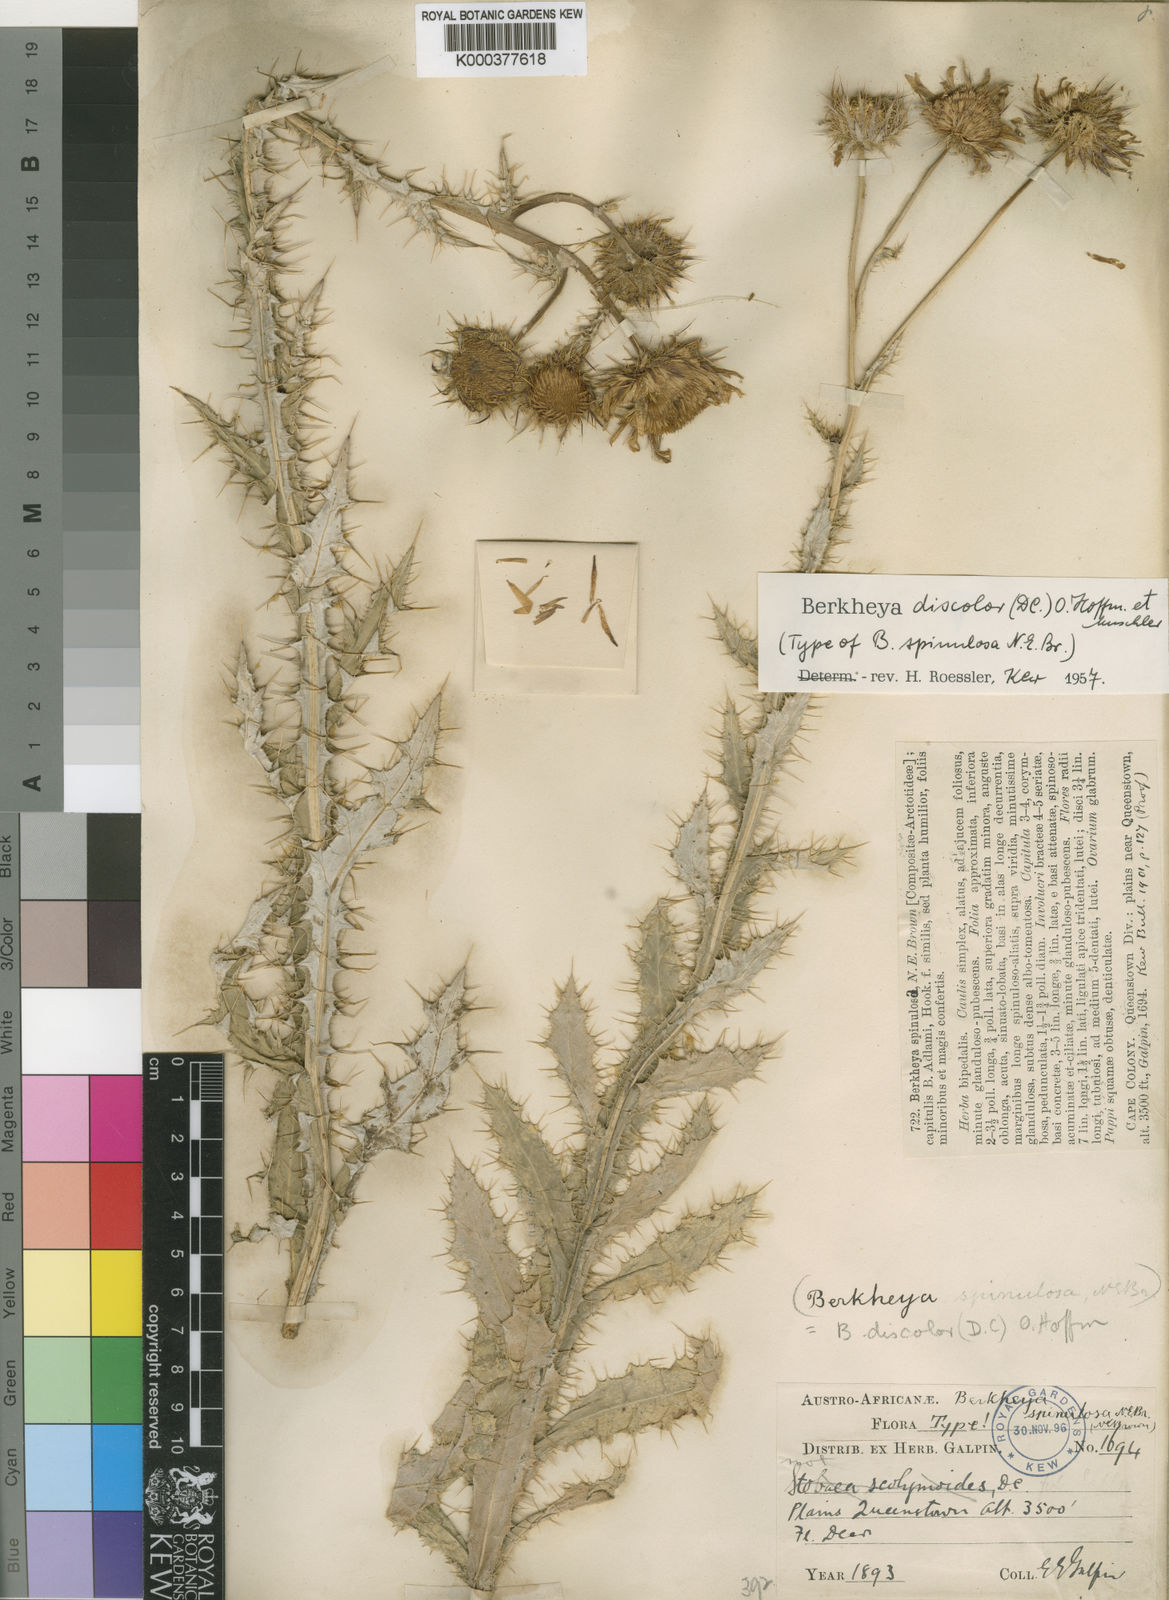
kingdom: Plantae
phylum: Tracheophyta
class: Magnoliopsida
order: Asterales
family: Asteraceae
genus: Berkheya
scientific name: Berkheya discolor
